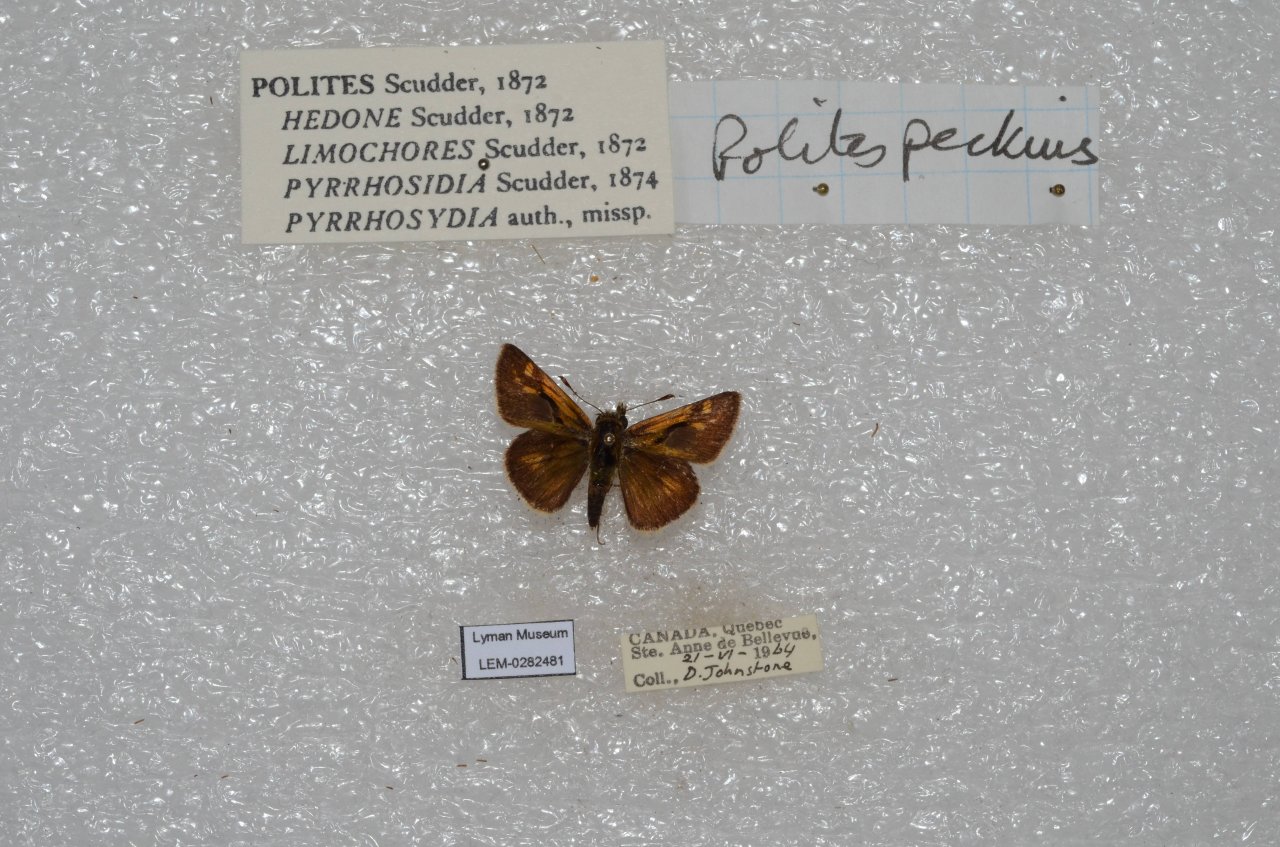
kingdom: Animalia
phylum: Arthropoda
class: Insecta
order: Lepidoptera
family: Hesperiidae
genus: Polites
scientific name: Polites coras
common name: Peck's Skipper
